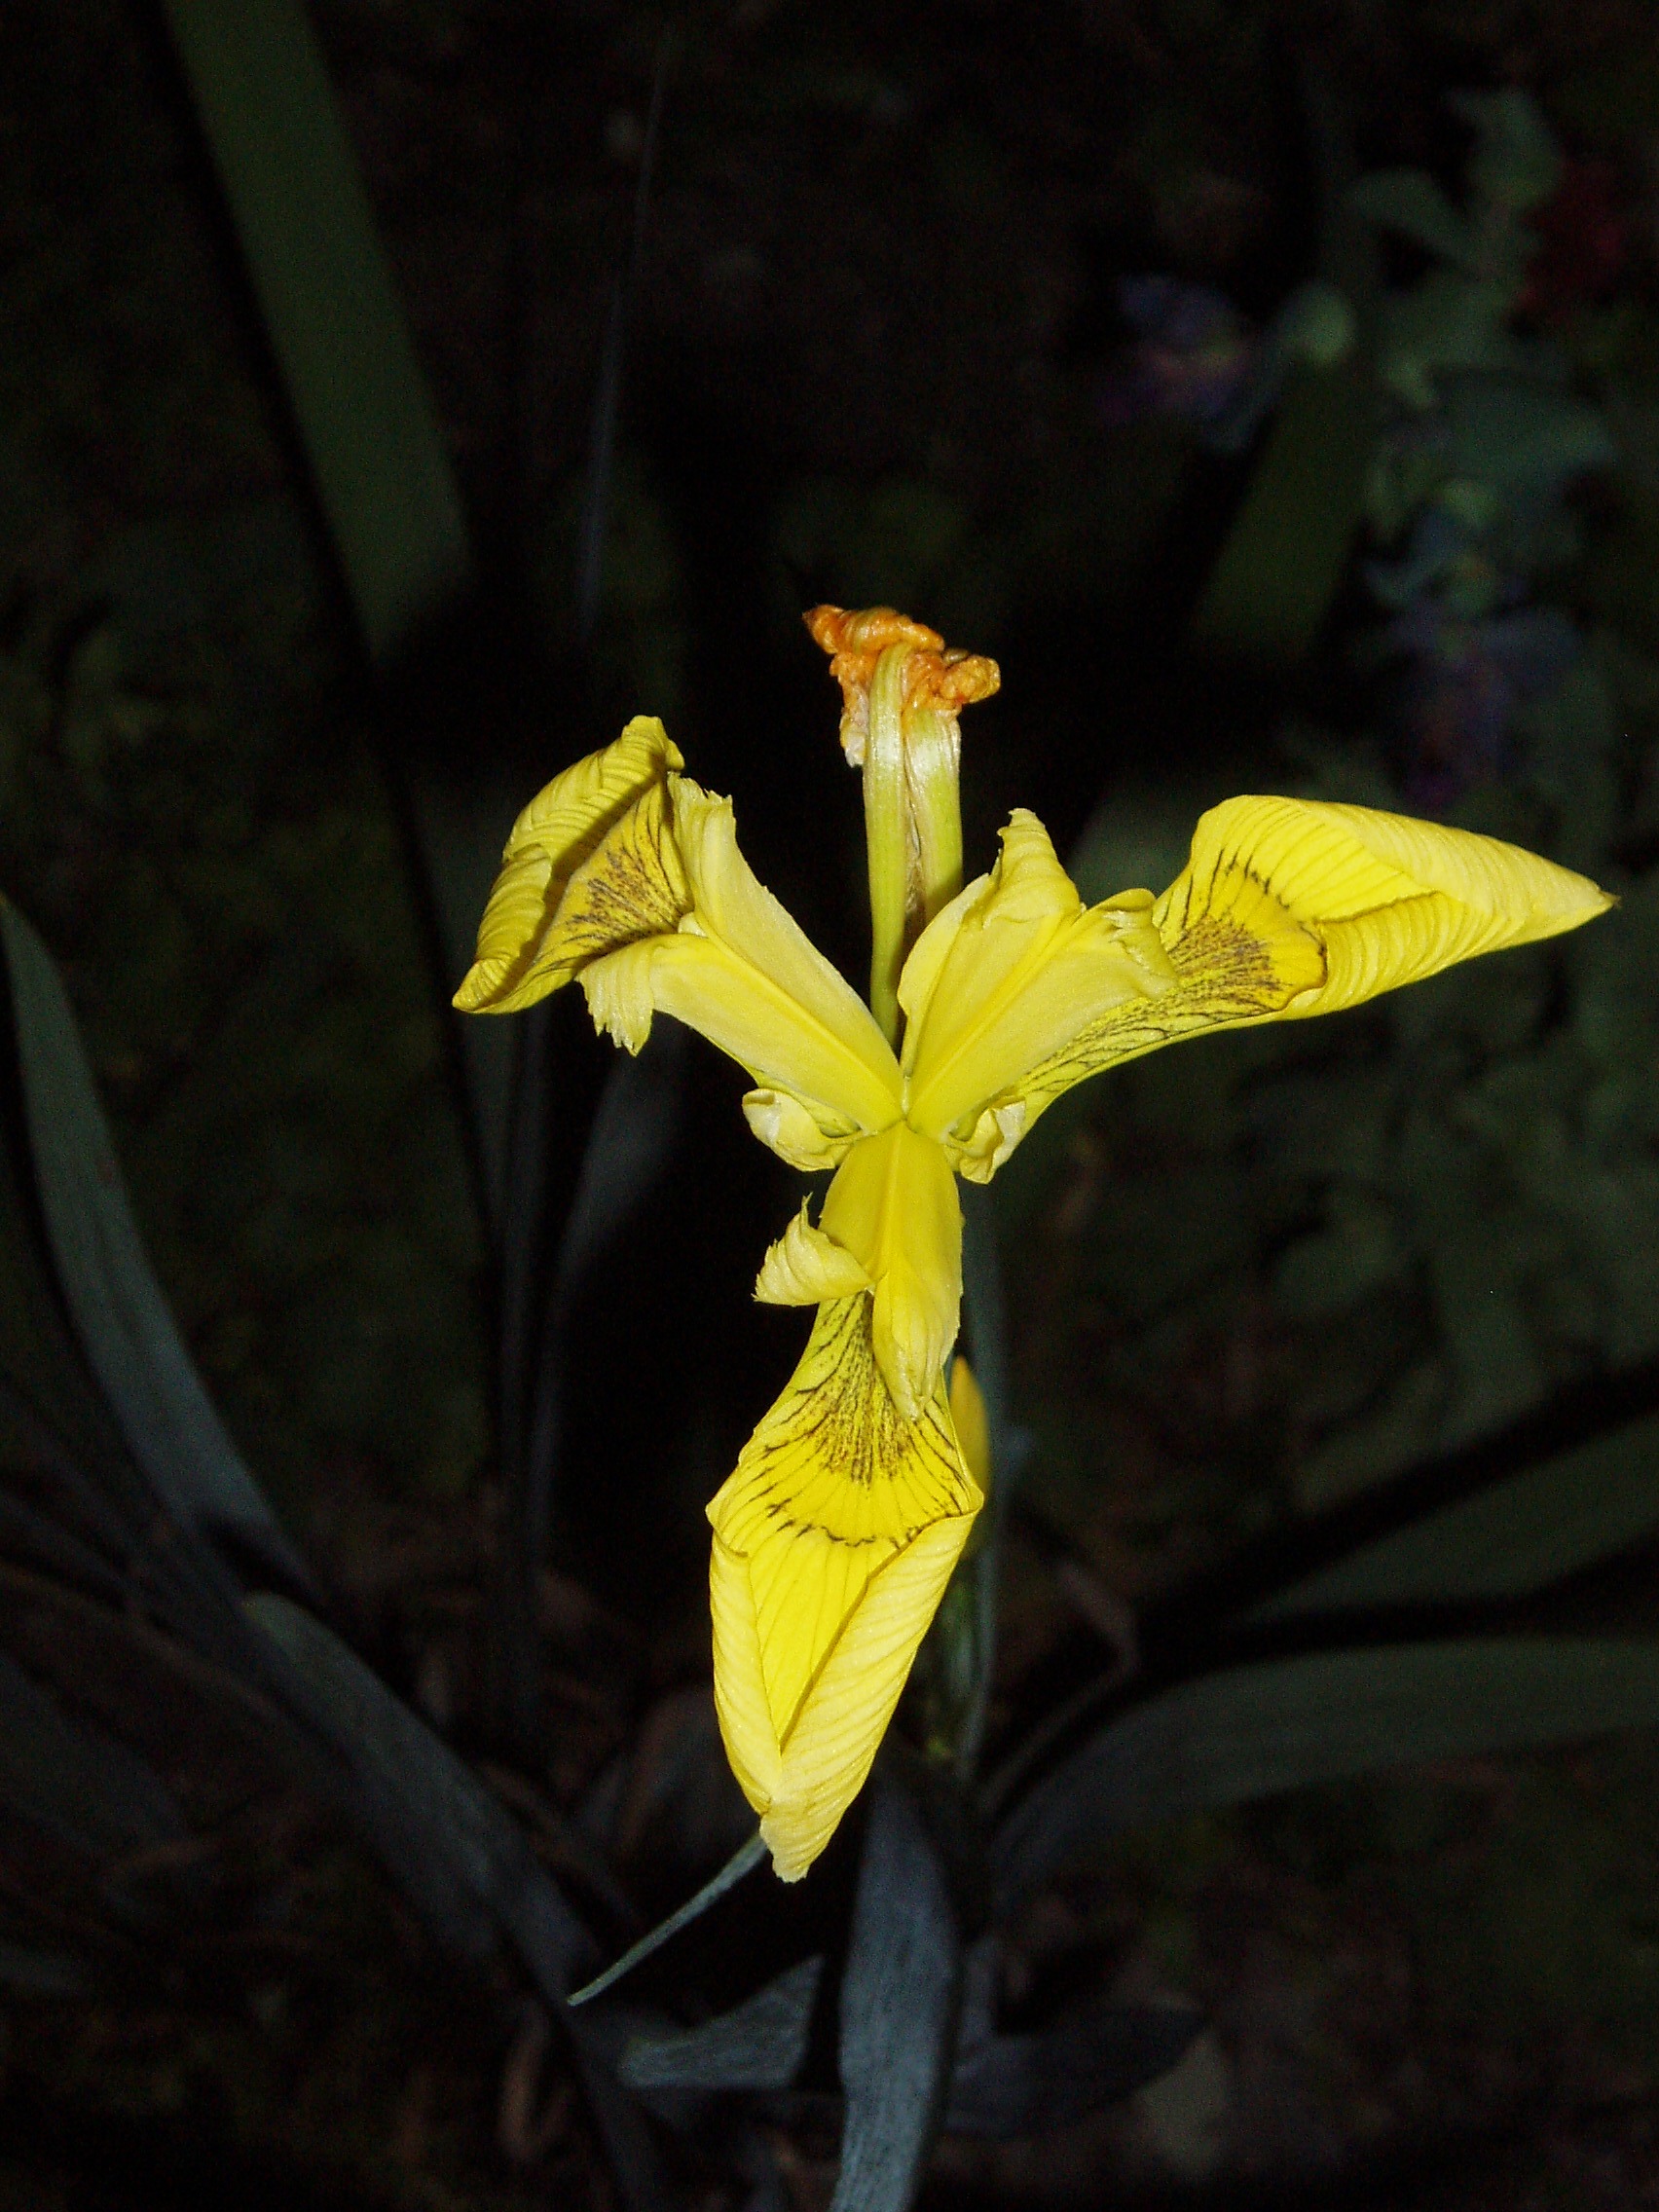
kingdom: Plantae
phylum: Tracheophyta
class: Liliopsida
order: Asparagales
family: Iridaceae
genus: Iris
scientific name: Iris pseudacorus
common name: Yellow flag
